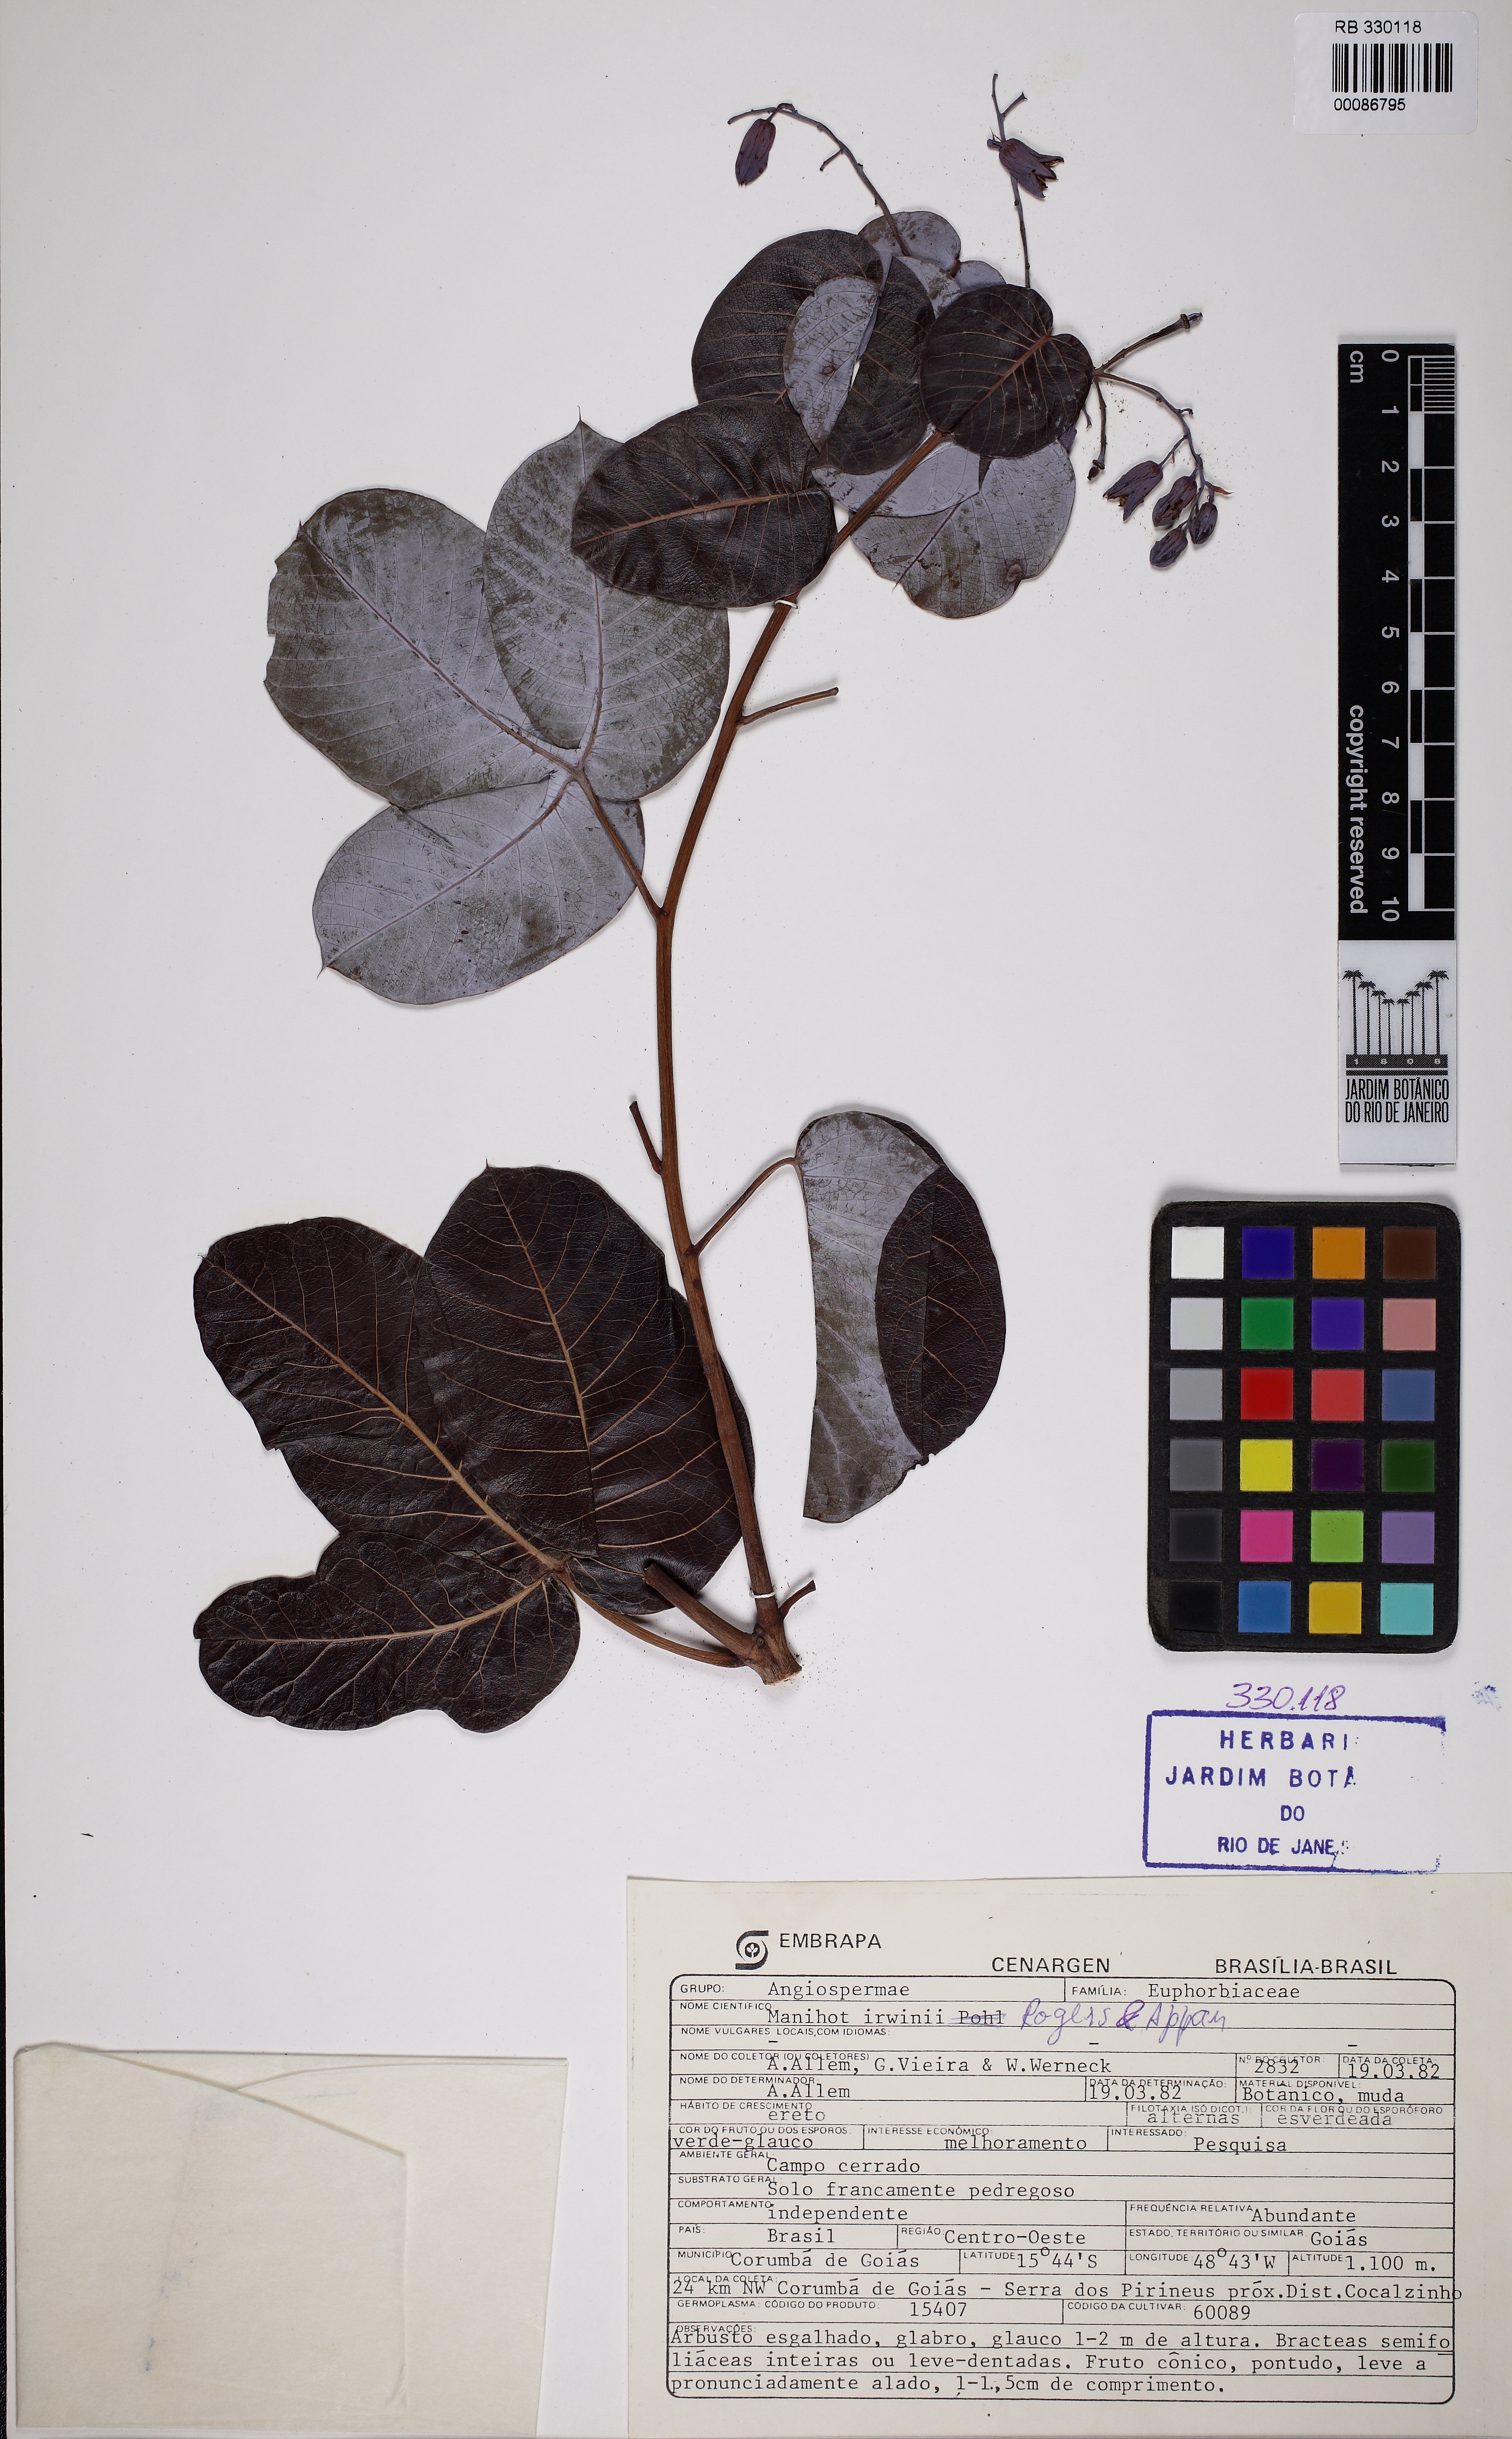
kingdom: Plantae
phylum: Tracheophyta
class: Magnoliopsida
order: Malpighiales
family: Euphorbiaceae
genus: Manihot
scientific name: Manihot irwinii
